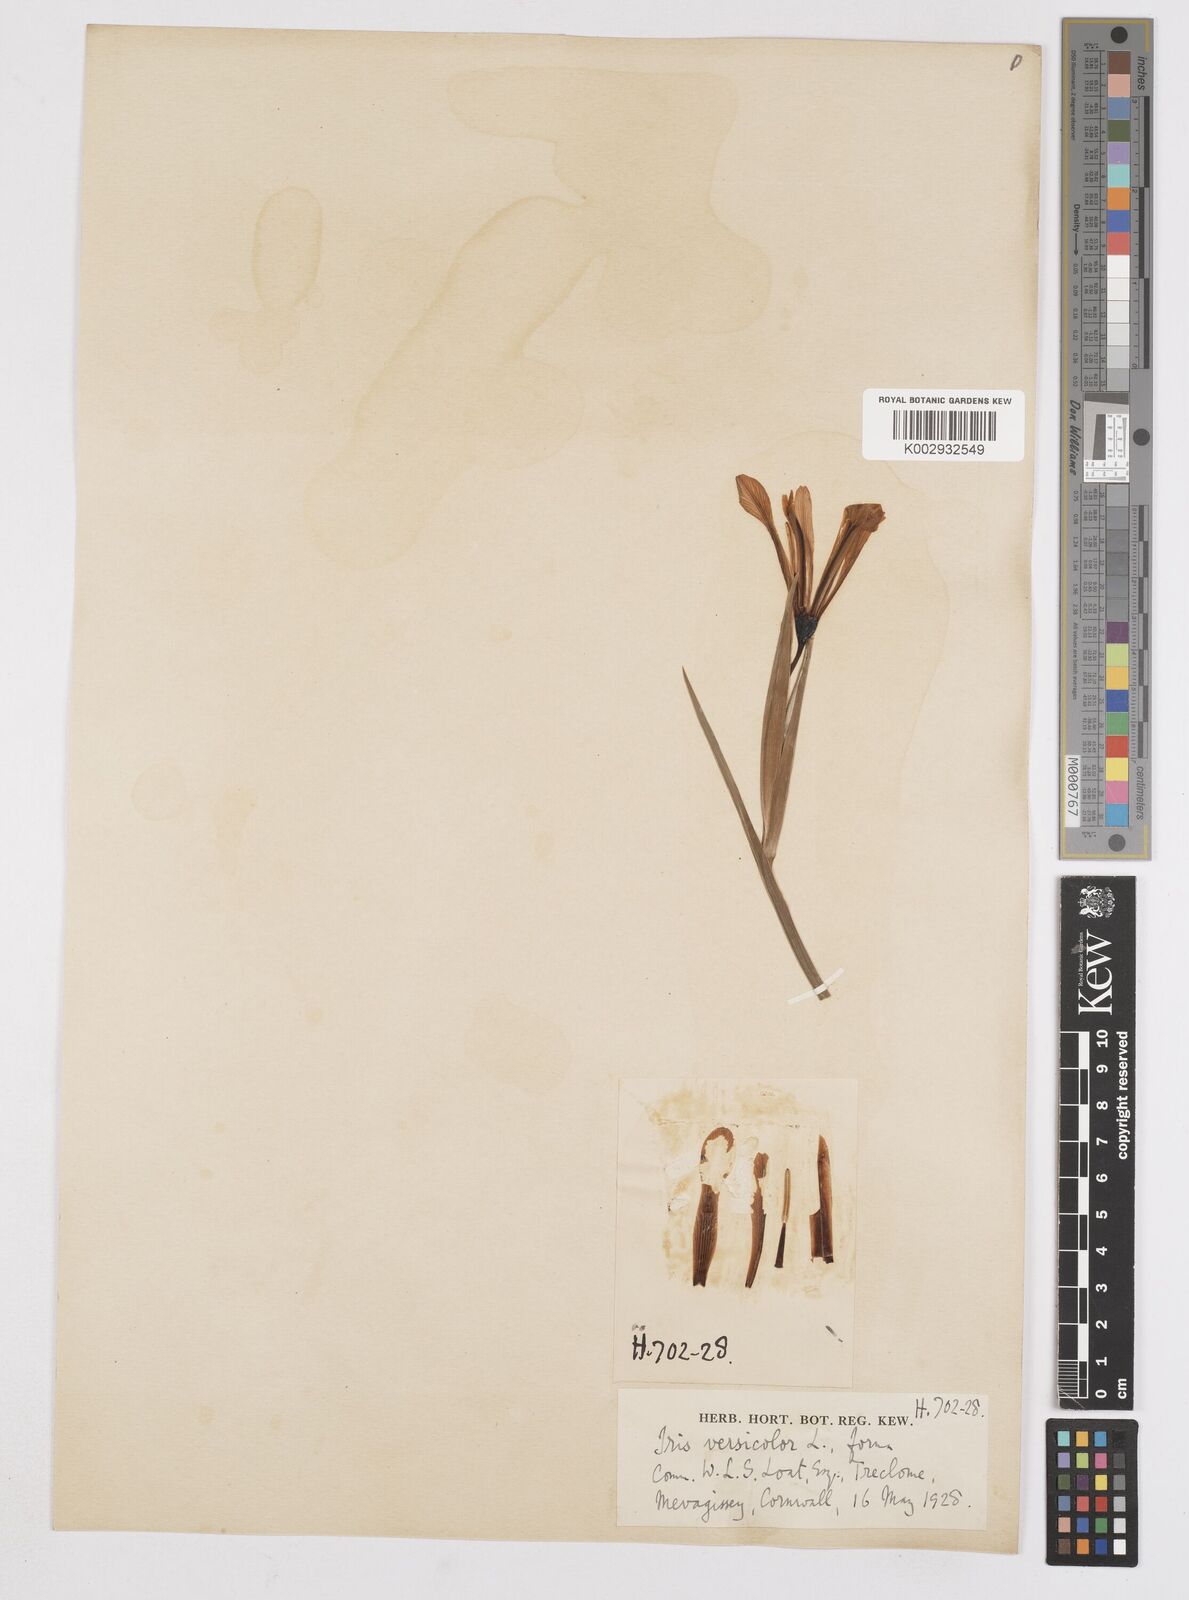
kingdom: Plantae
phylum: Tracheophyta
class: Liliopsida
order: Asparagales
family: Iridaceae
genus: Iris
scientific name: Iris versicolor
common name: Purple iris
